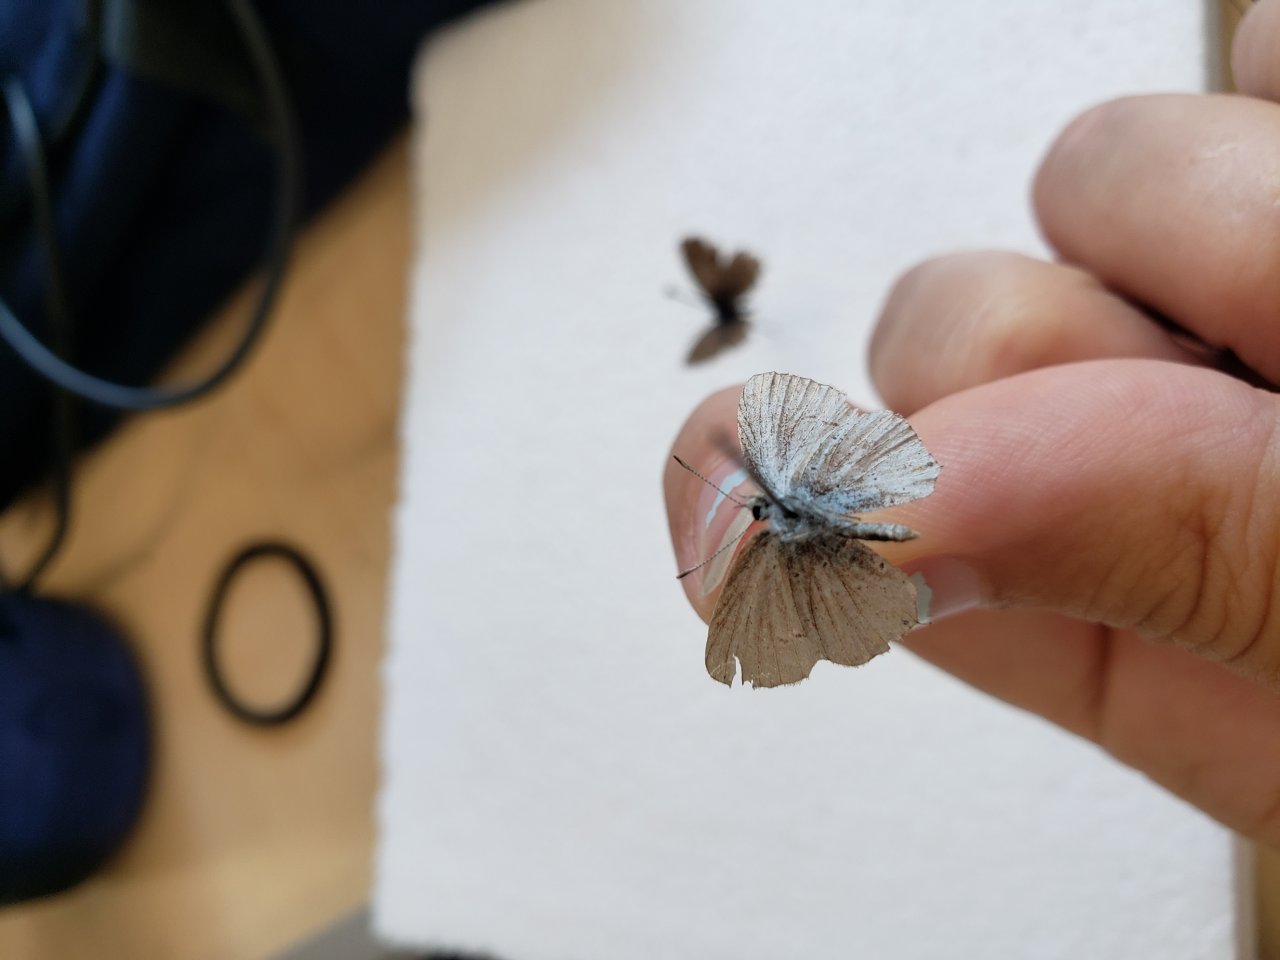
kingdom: Animalia
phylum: Arthropoda
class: Insecta
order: Lepidoptera
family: Lycaenidae
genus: Elkalyce
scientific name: Elkalyce amyntula
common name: Western Tailed-Blue
